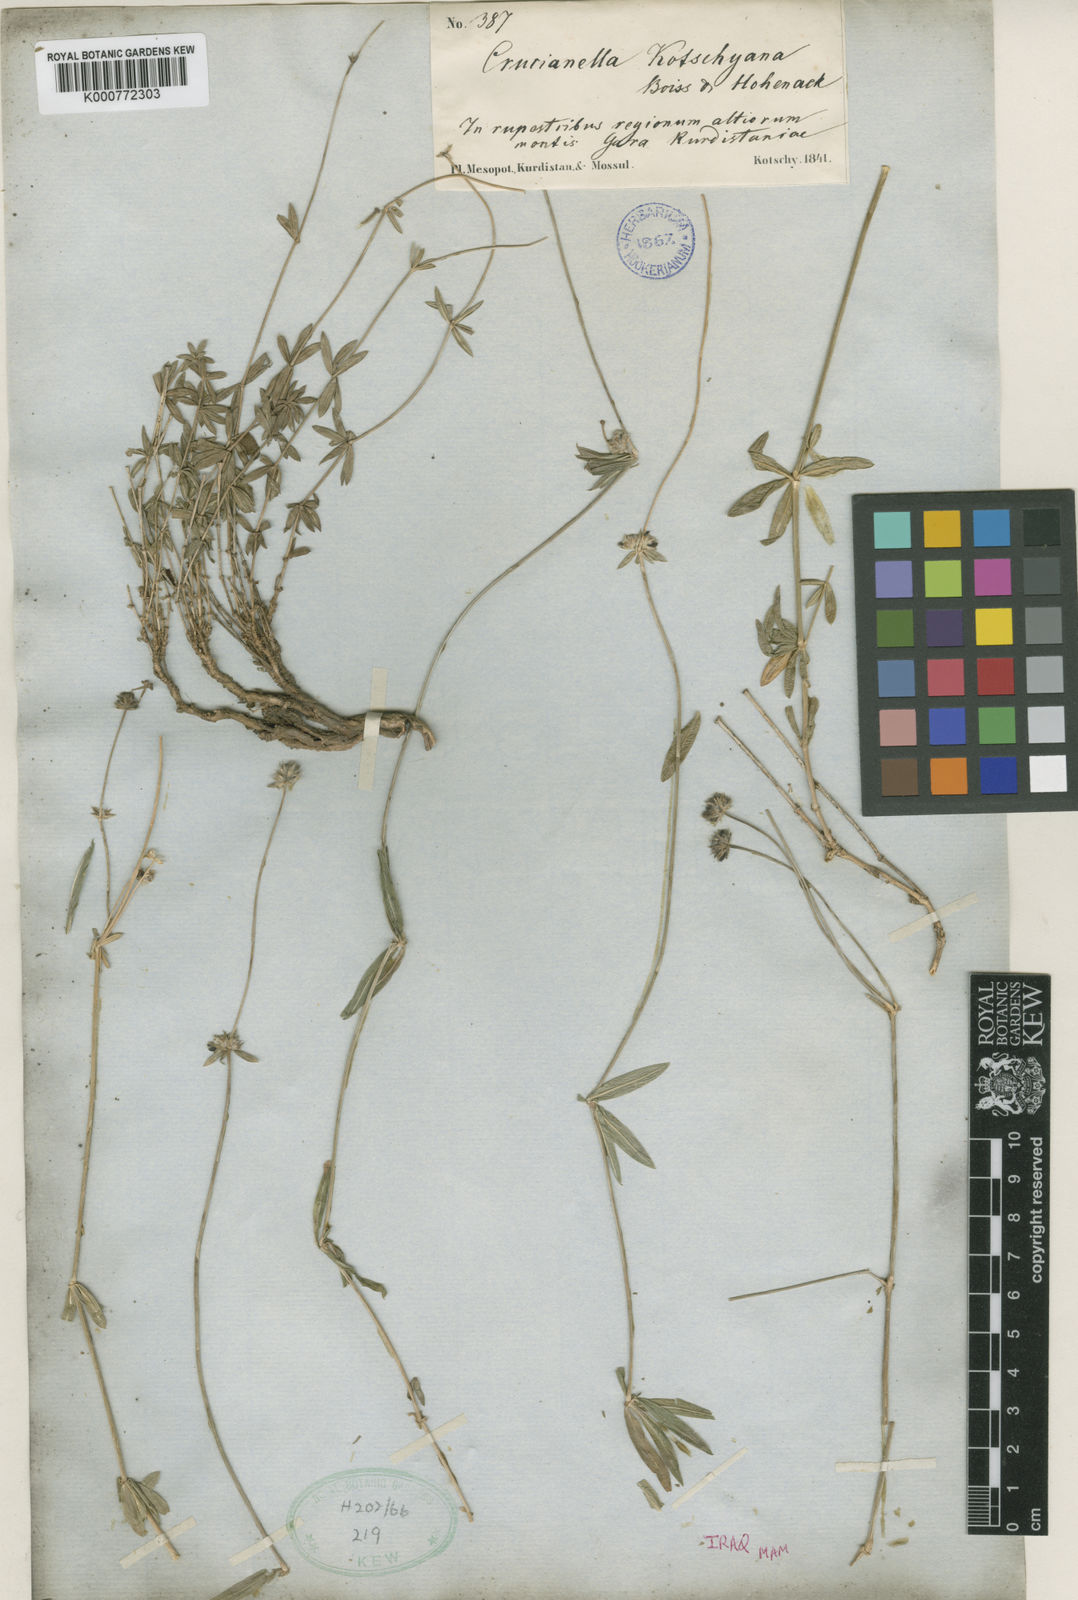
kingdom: Plantae
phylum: Tracheophyta
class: Magnoliopsida
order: Gentianales
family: Rubiaceae
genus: Valantia
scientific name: Valantia hispida
